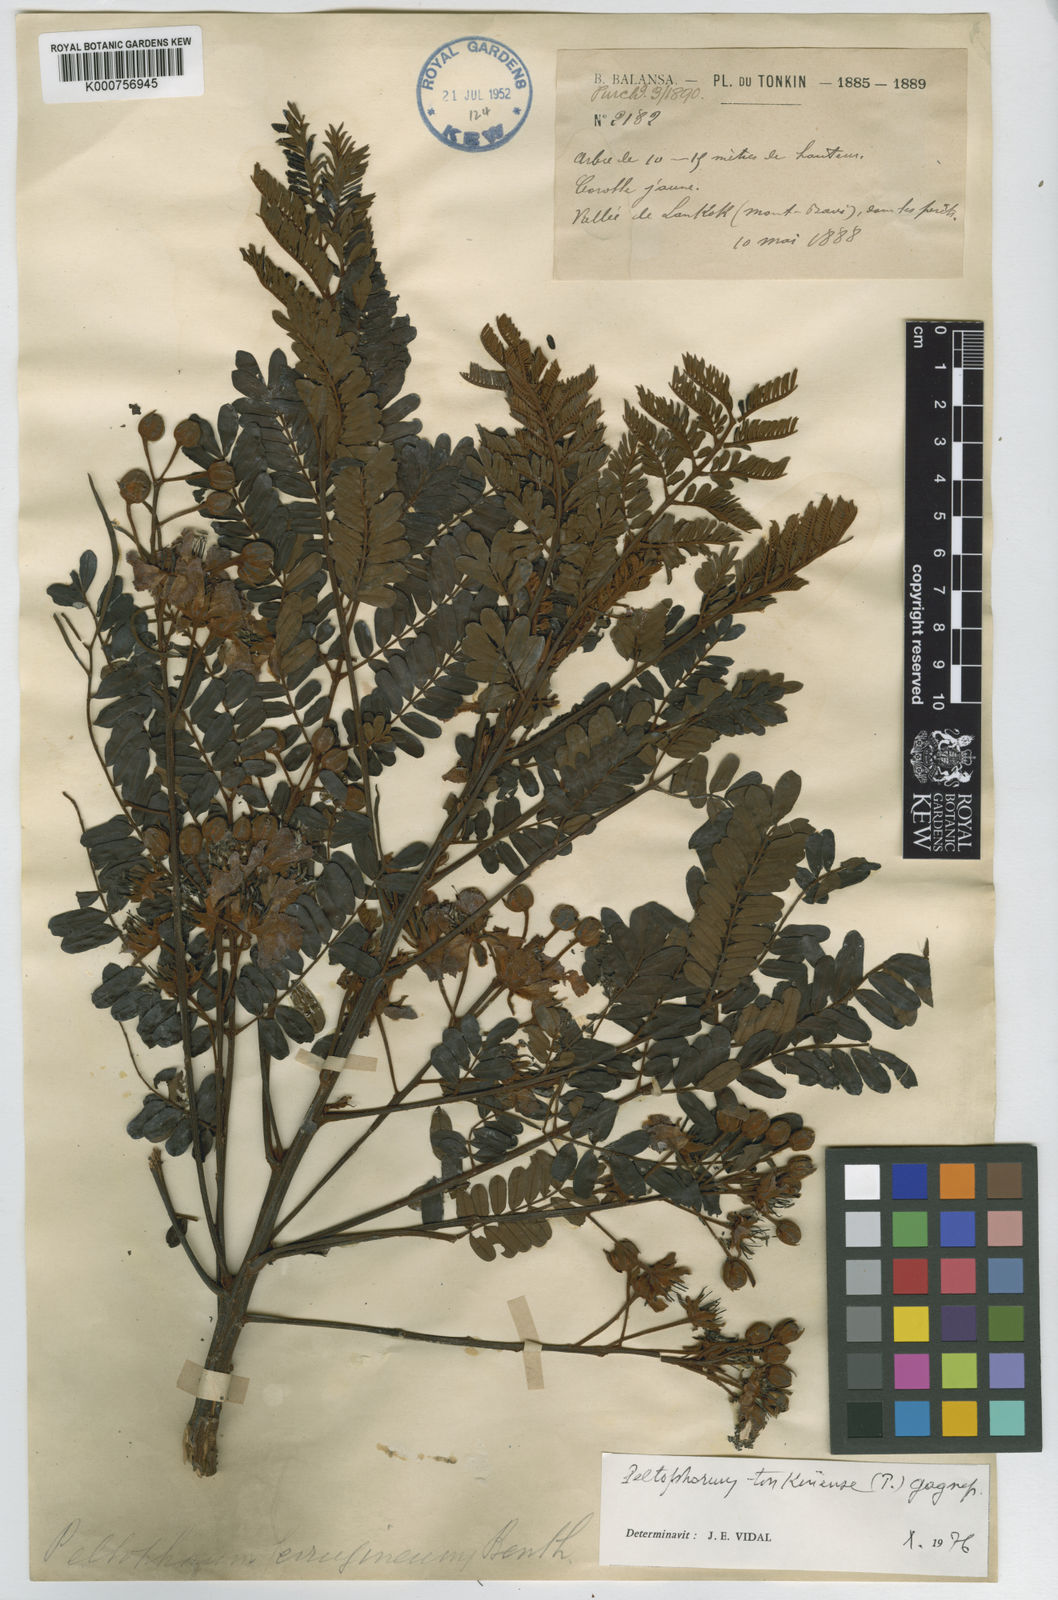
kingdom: Plantae
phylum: Tracheophyta
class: Magnoliopsida
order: Fabales
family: Fabaceae
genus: Peltophorum
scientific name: Peltophorum dasyrhachis
